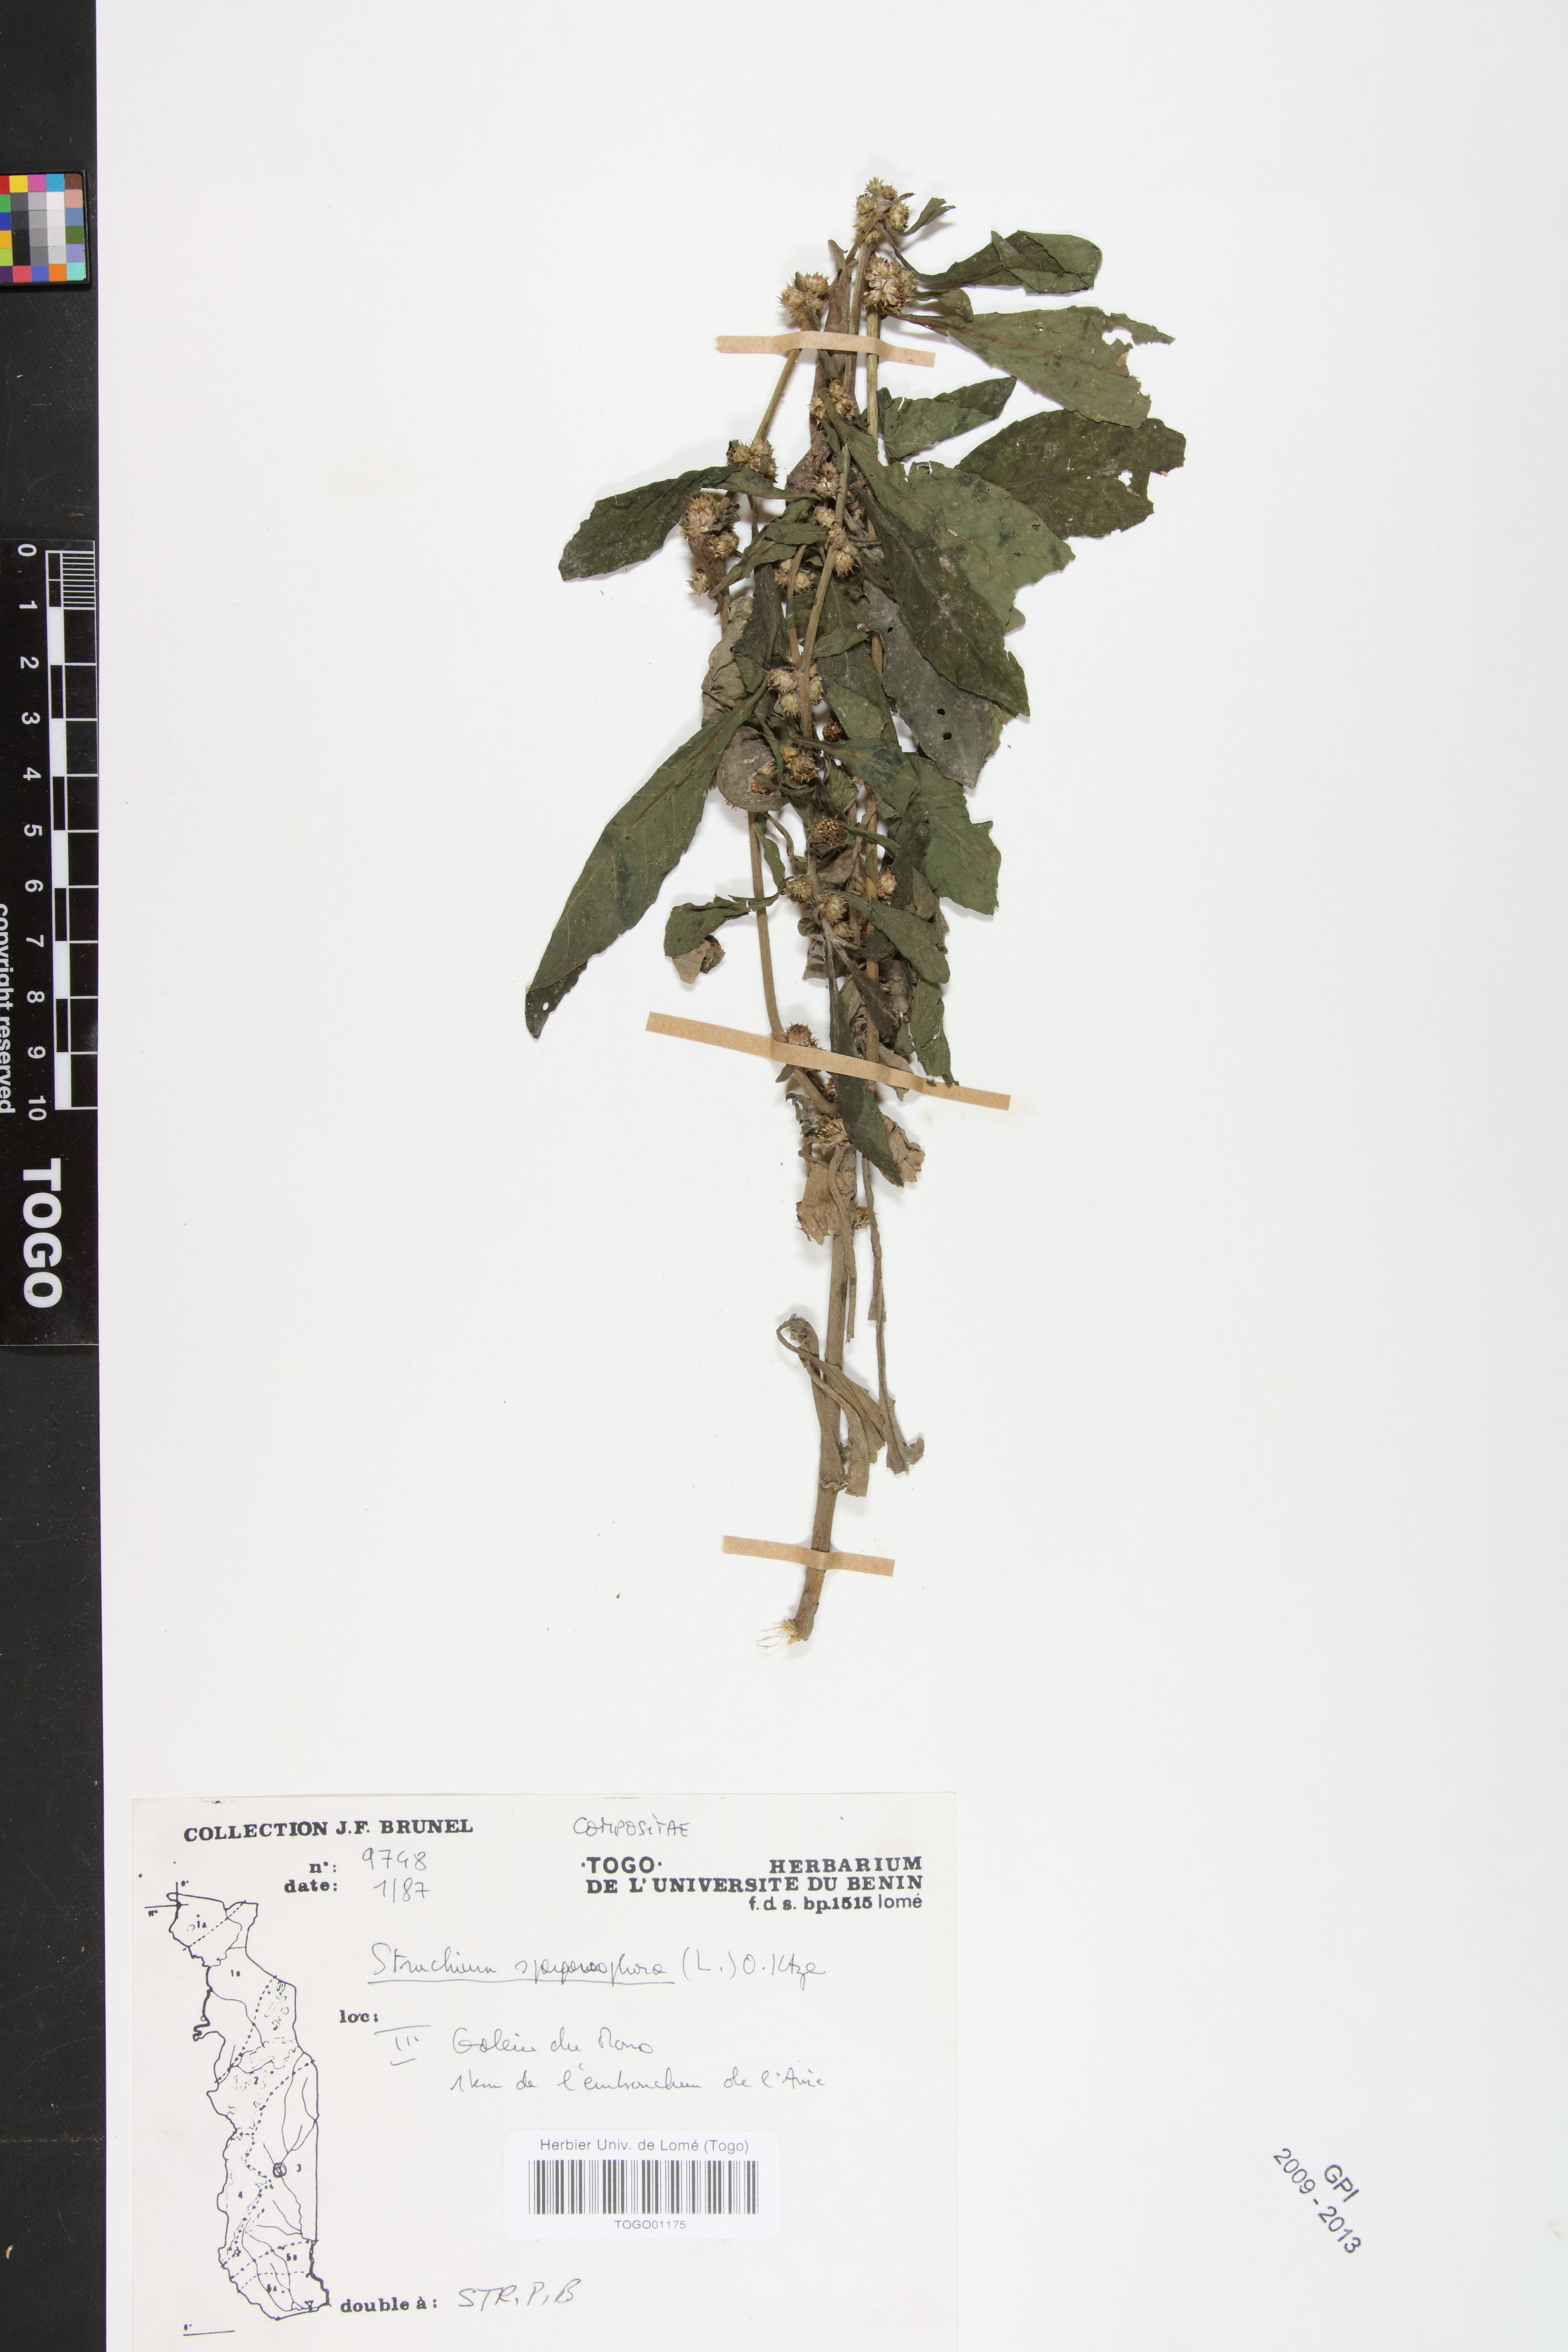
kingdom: Plantae
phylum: Tracheophyta
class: Magnoliopsida
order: Asterales
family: Asteraceae
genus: Struchium
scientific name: Struchium sparganophorum
